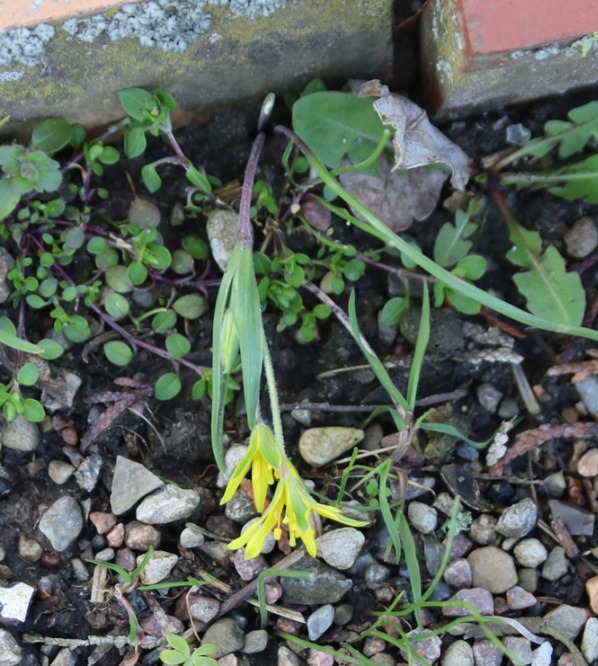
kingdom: Plantae
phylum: Tracheophyta
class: Liliopsida
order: Liliales
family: Liliaceae
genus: Gagea
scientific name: Gagea villosa
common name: Ager-guldstjerne
